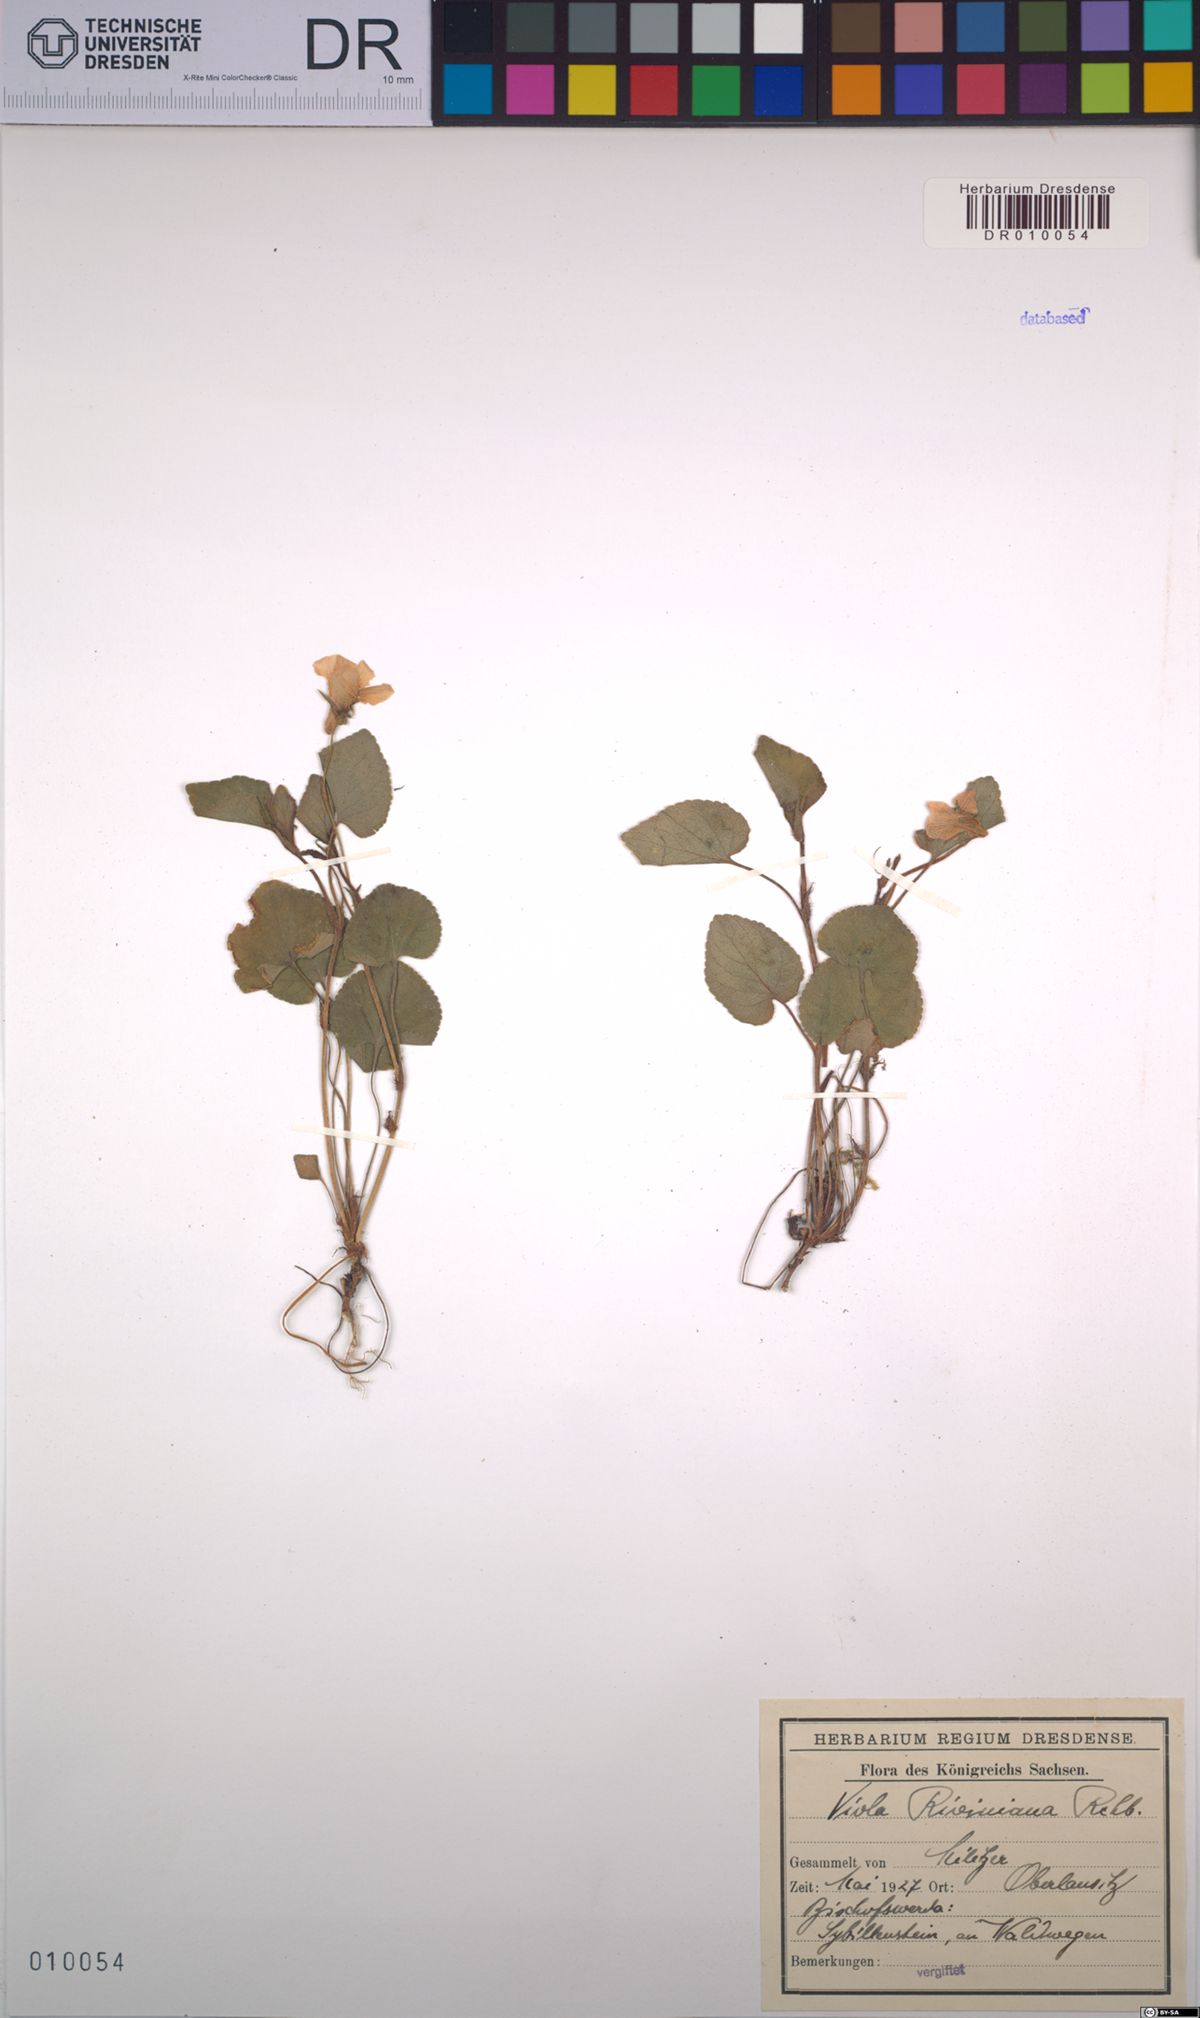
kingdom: Plantae
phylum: Tracheophyta
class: Magnoliopsida
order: Malpighiales
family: Violaceae
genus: Viola
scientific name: Viola riviniana
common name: Common dog-violet
